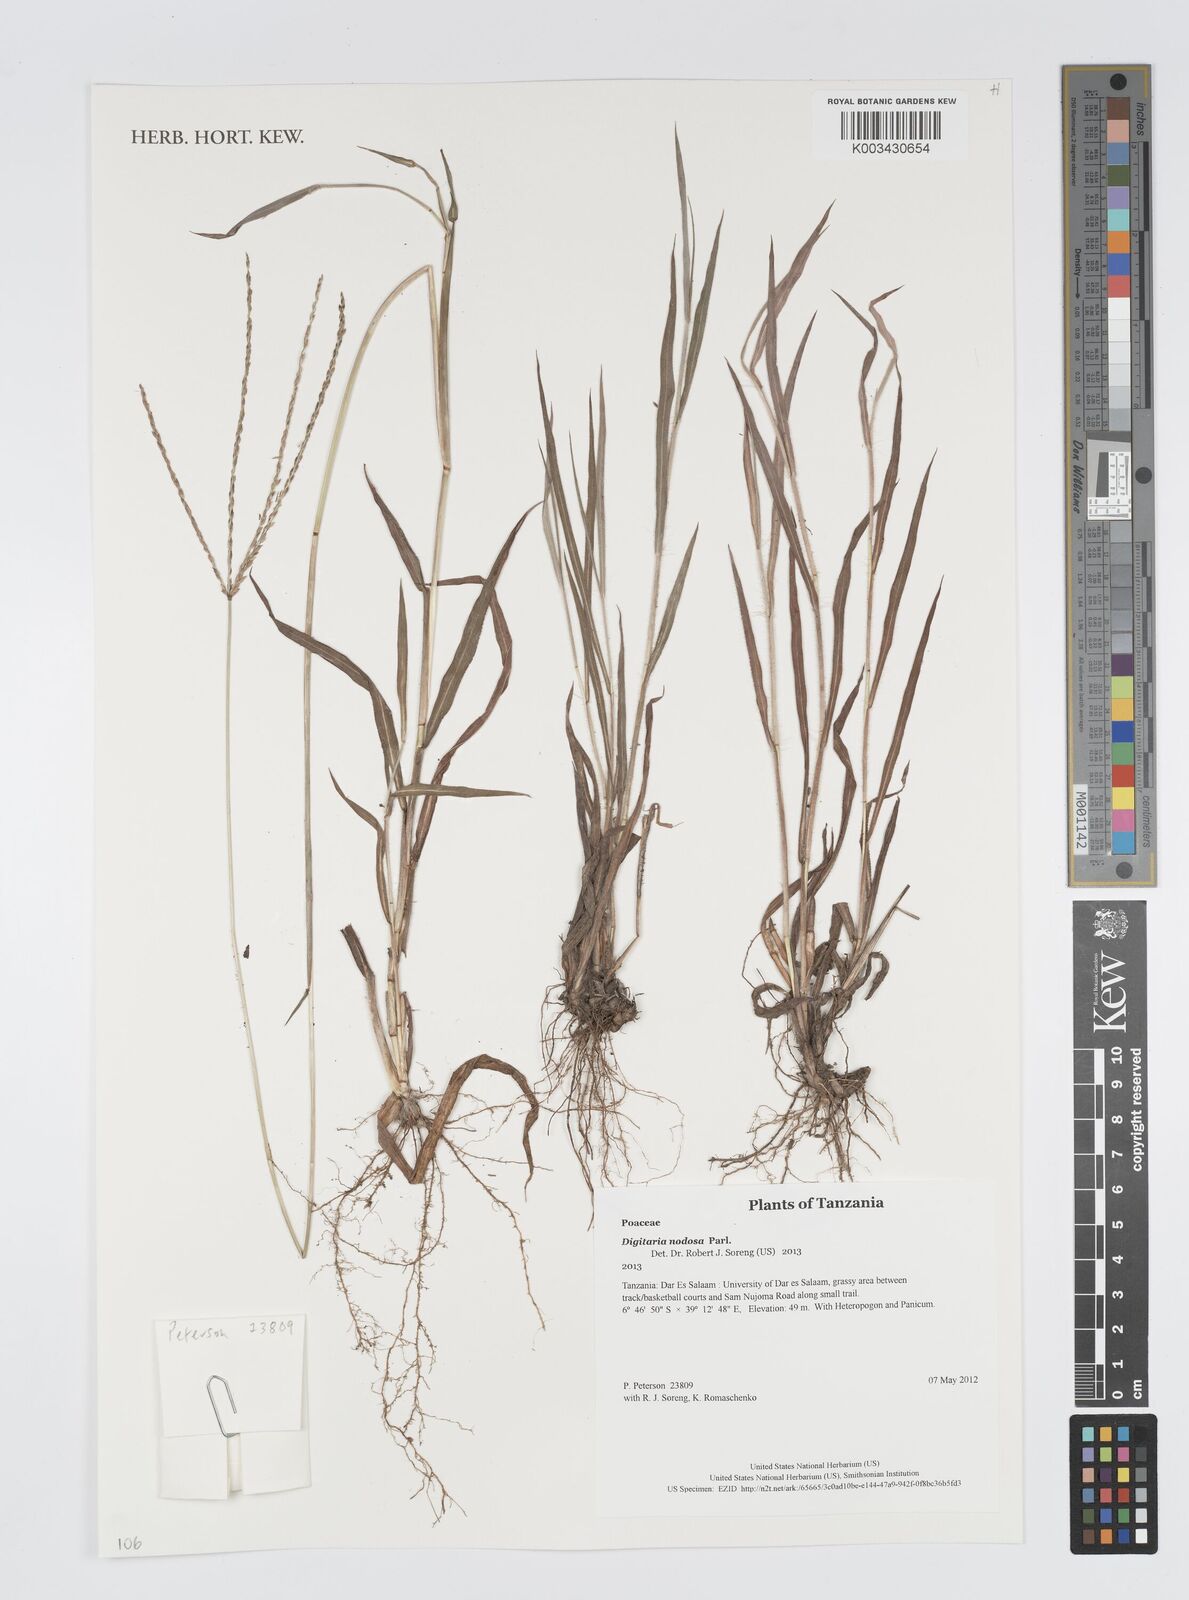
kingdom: Plantae
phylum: Tracheophyta
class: Liliopsida
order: Poales
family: Poaceae
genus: Digitaria
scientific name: Digitaria nodosa
